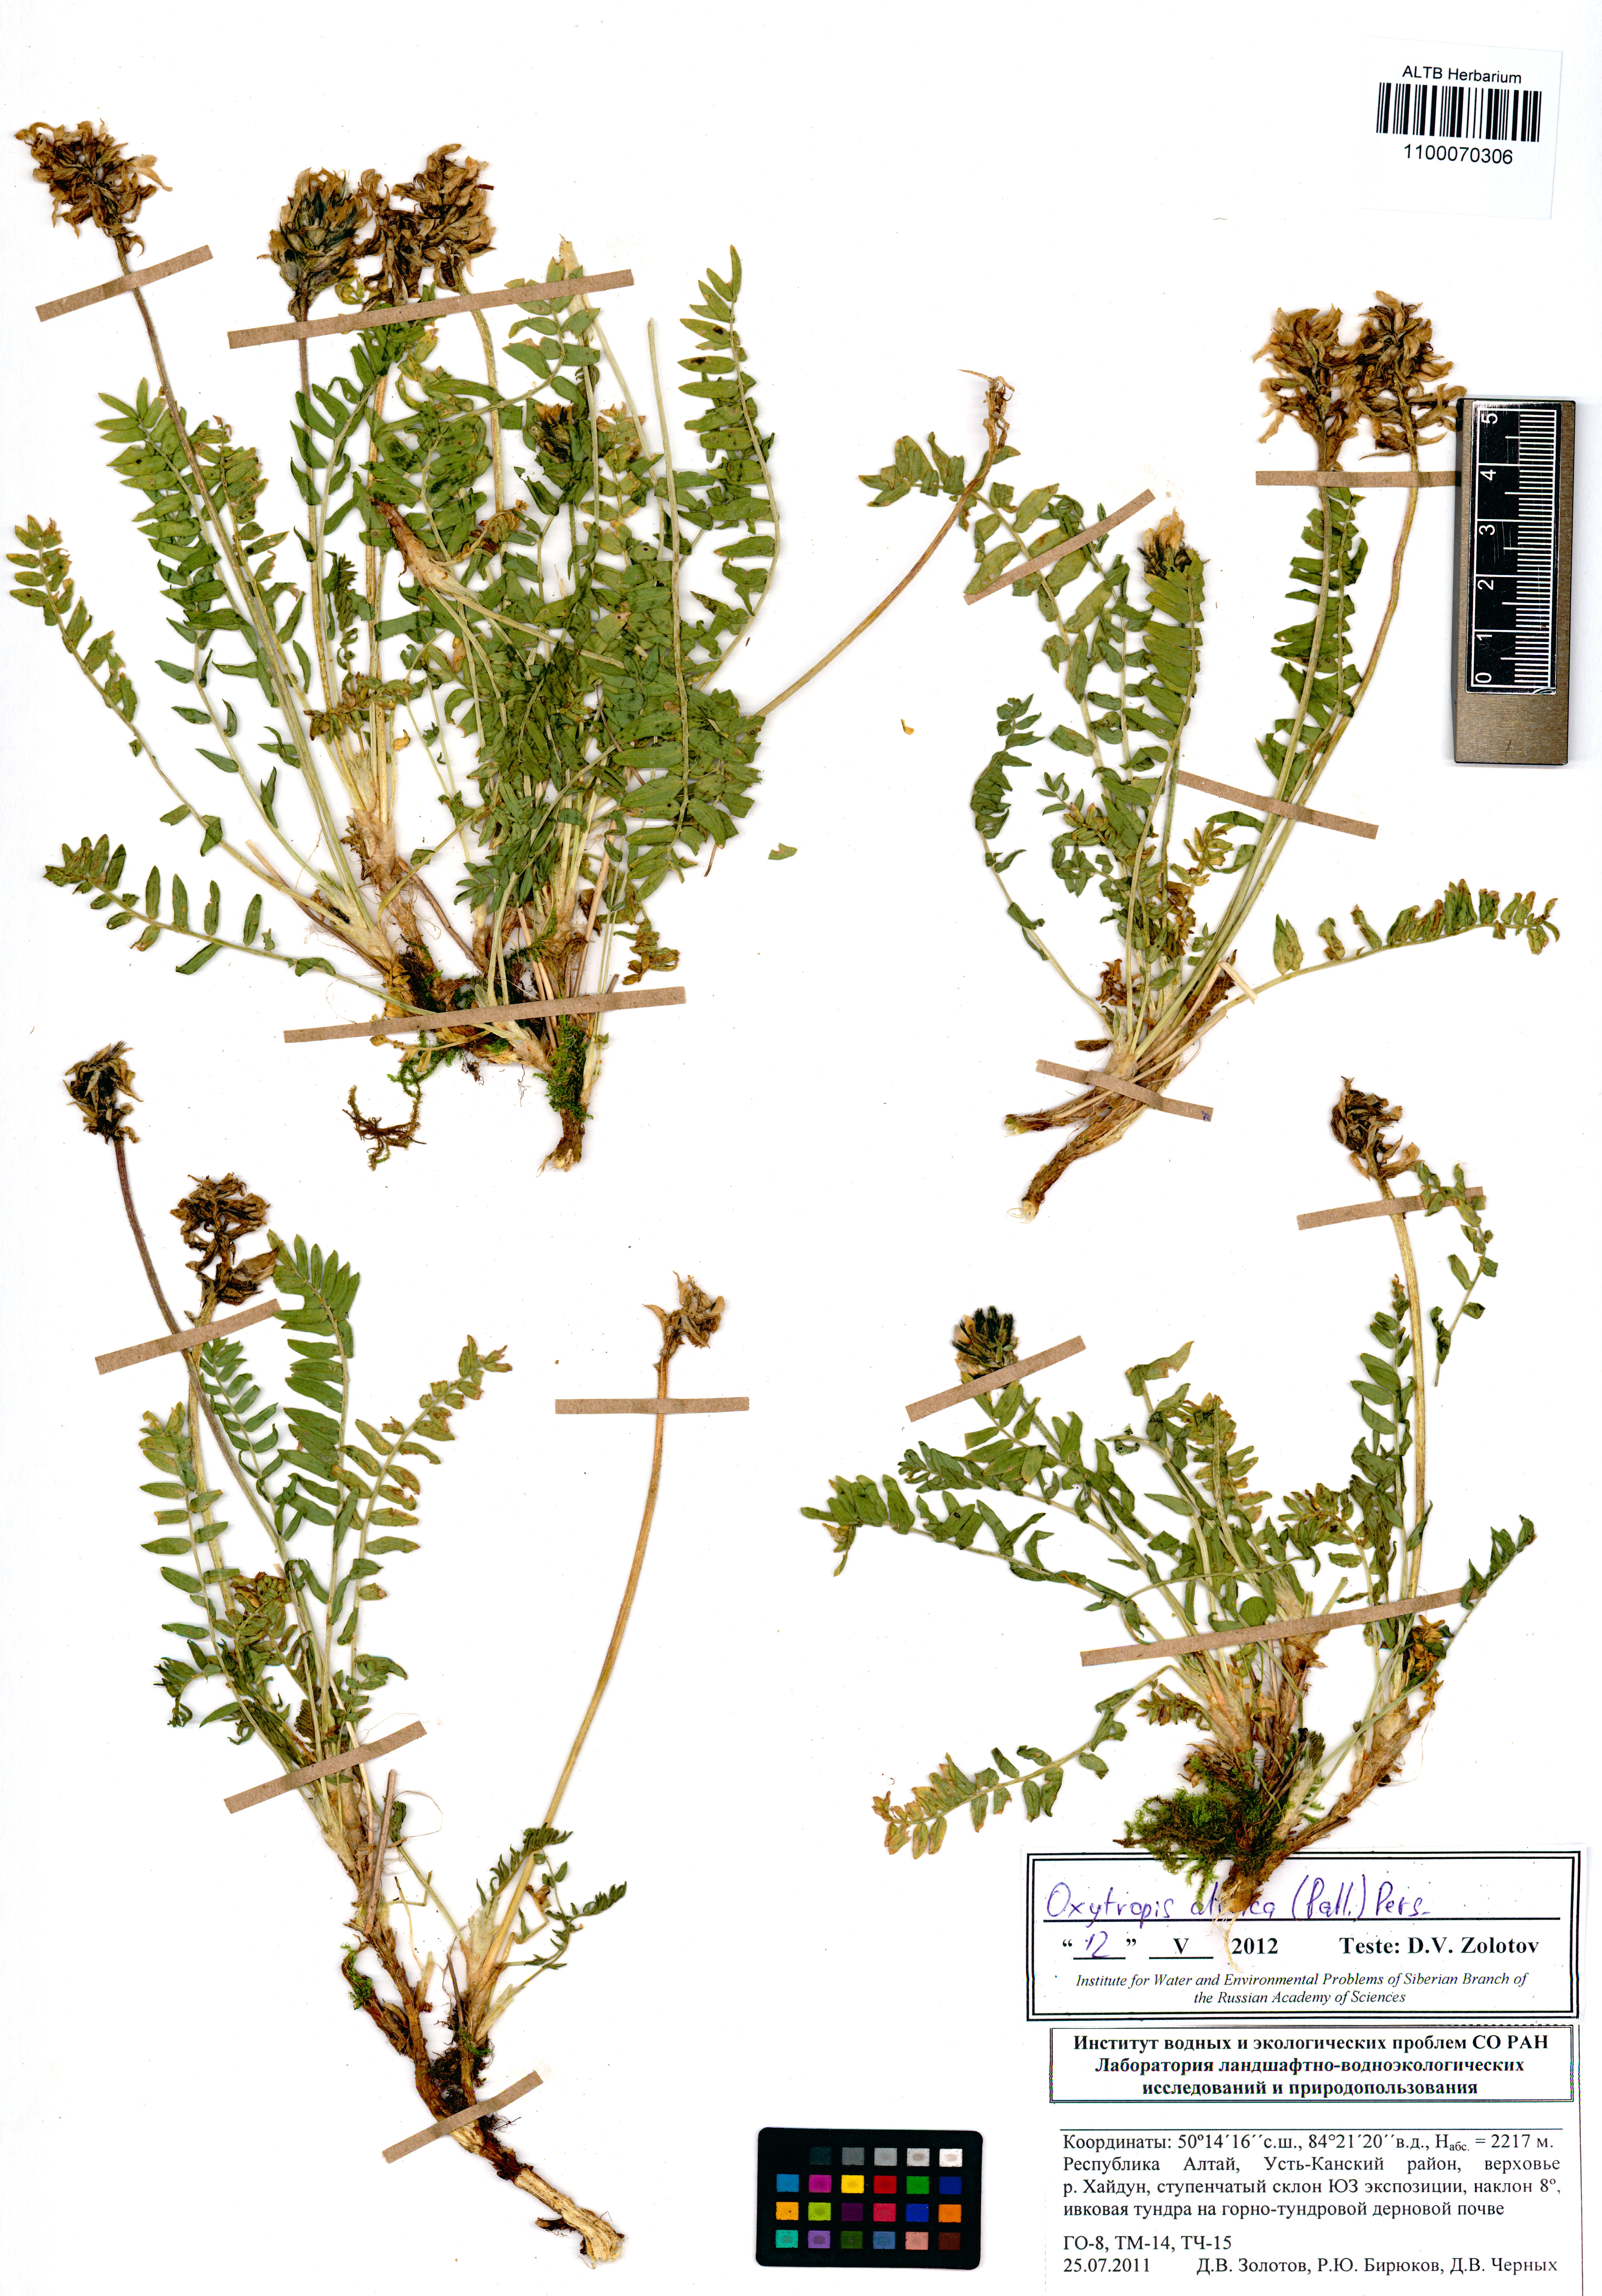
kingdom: Plantae
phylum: Tracheophyta
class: Magnoliopsida
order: Fabales
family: Fabaceae
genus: Oxytropis
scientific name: Oxytropis altaica
